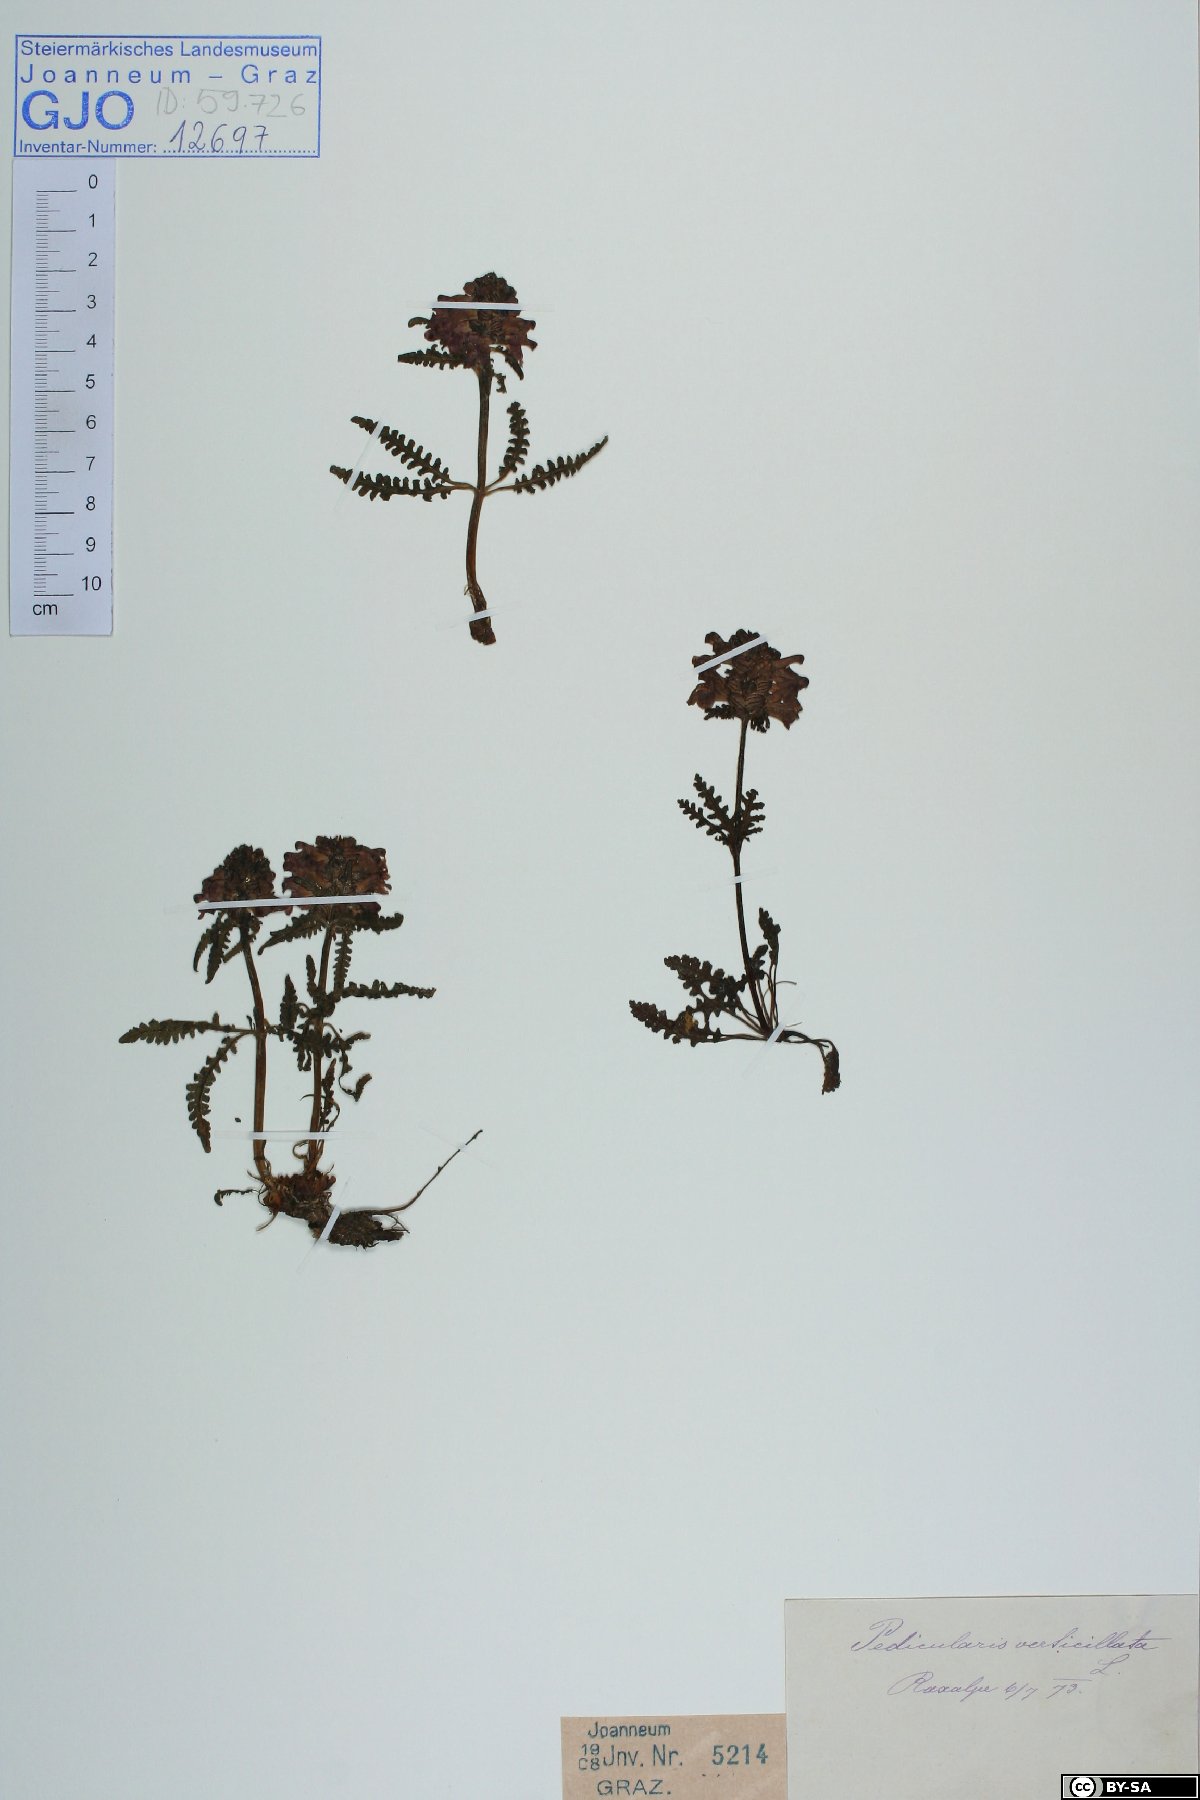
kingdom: Plantae
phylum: Tracheophyta
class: Magnoliopsida
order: Lamiales
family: Orobanchaceae
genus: Pedicularis
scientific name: Pedicularis verticillata
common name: Whorled lousewort
